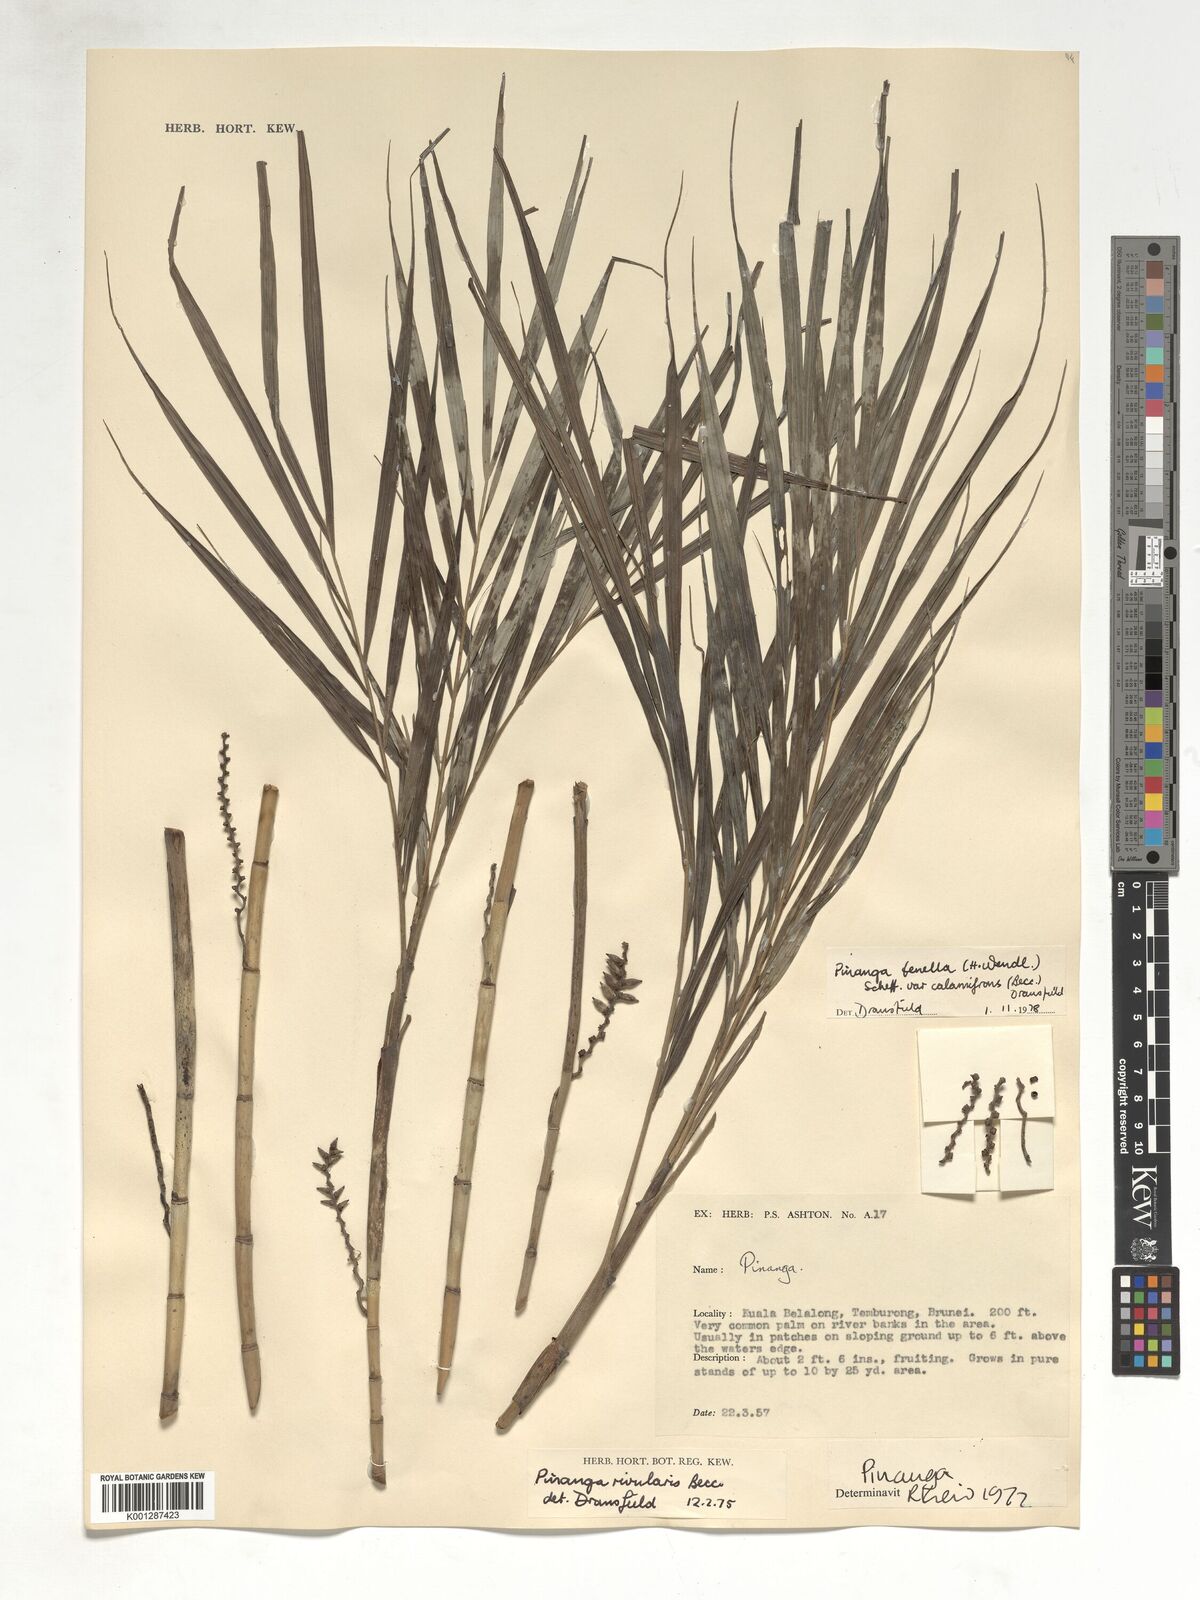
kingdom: Plantae
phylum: Tracheophyta
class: Liliopsida
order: Arecales
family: Arecaceae
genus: Pinanga
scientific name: Pinanga tenella
